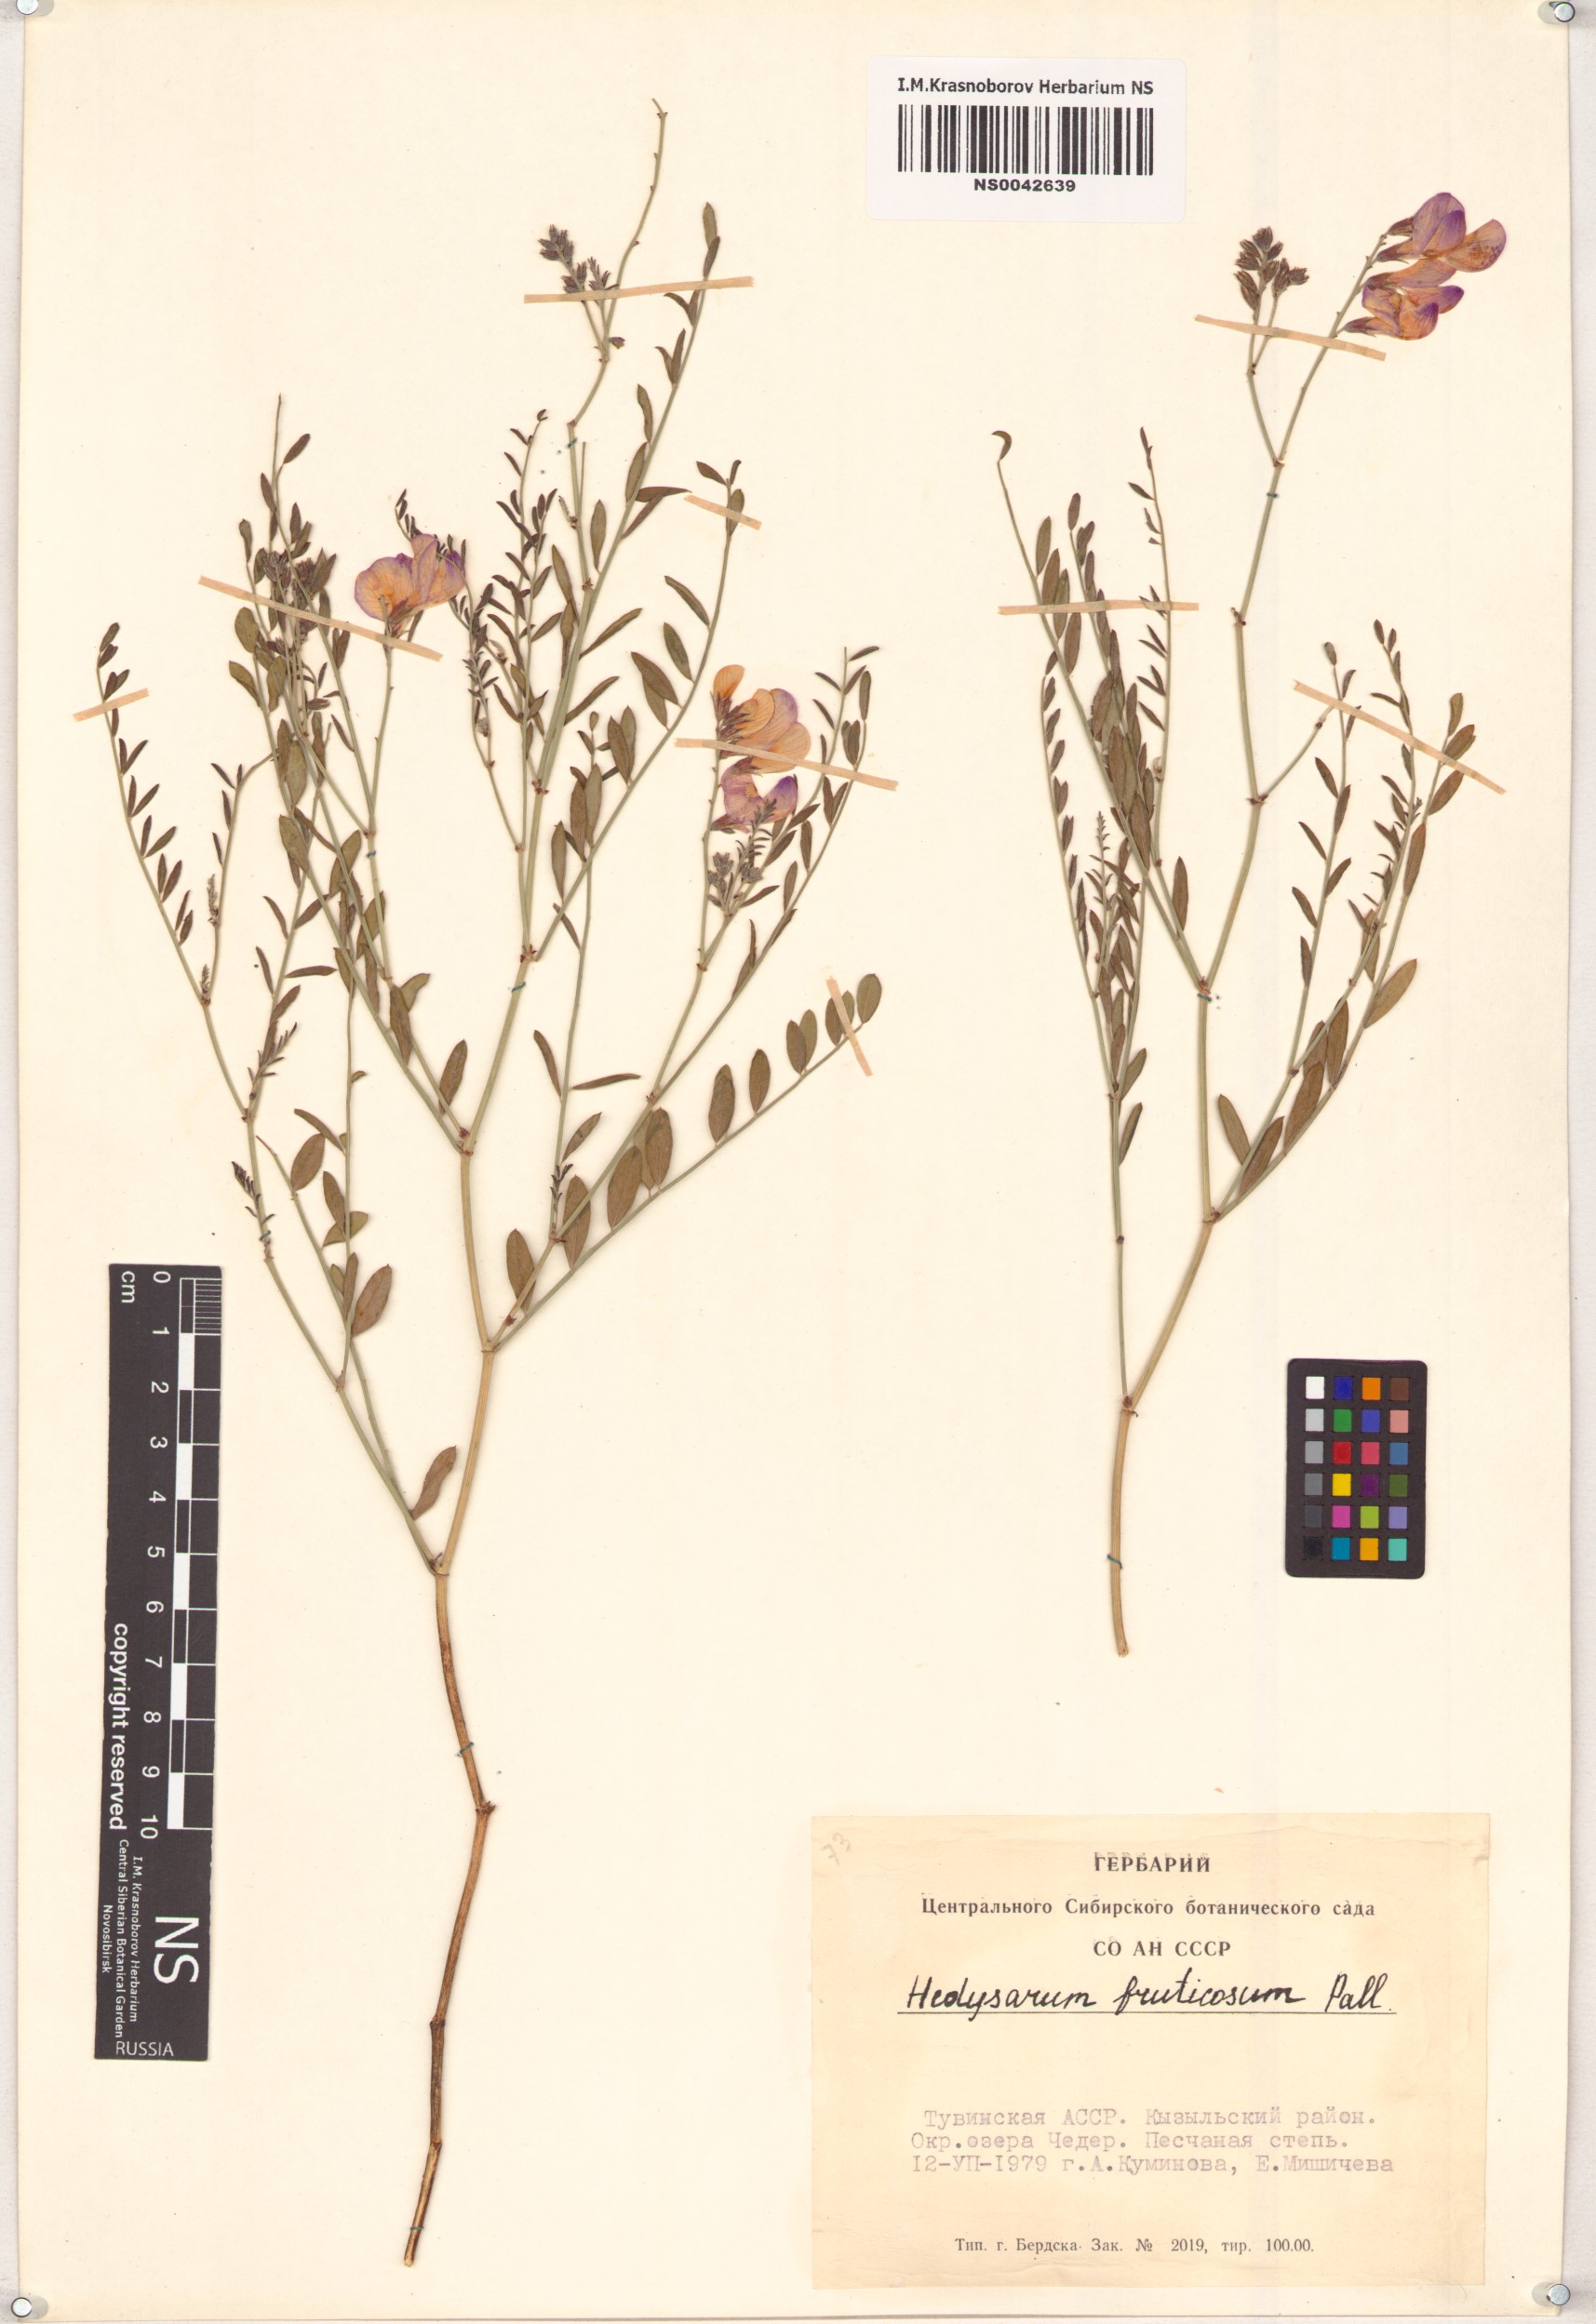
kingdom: Plantae
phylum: Tracheophyta
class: Magnoliopsida
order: Fabales
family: Fabaceae
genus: Corethrodendron
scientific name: Corethrodendron fruticosum
